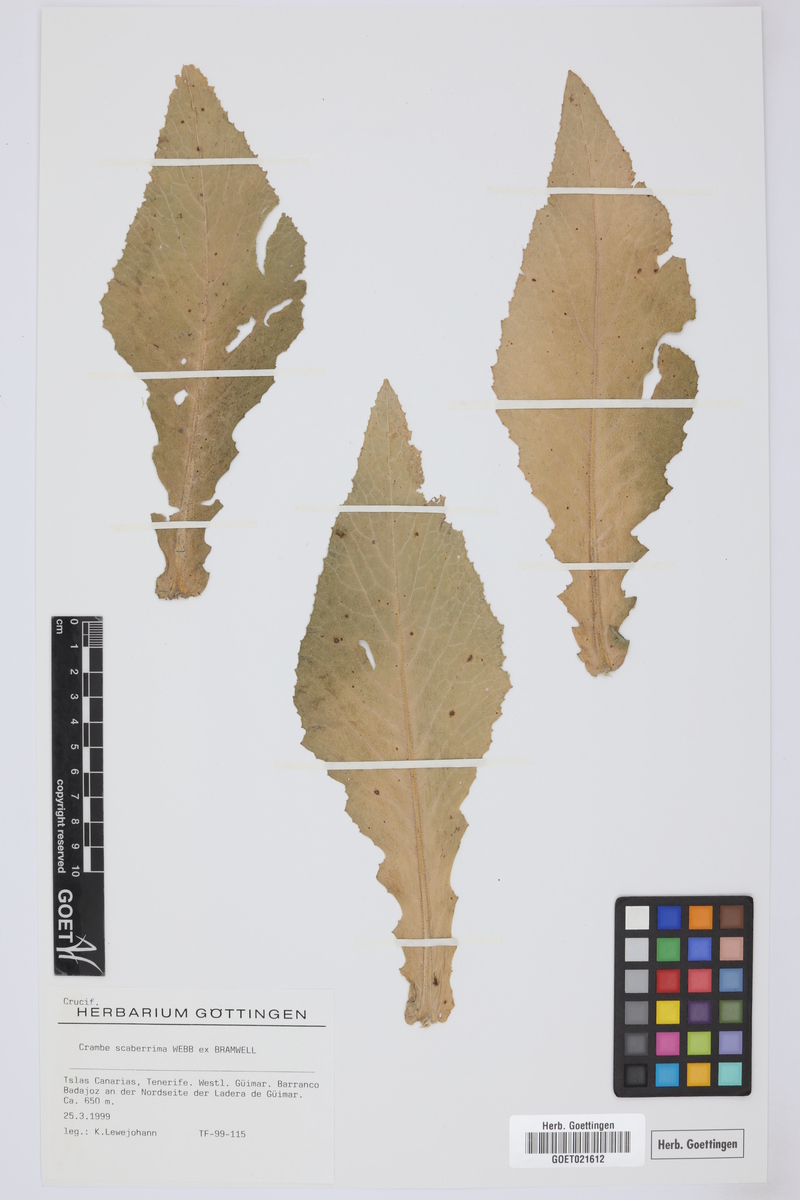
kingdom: Plantae
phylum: Tracheophyta
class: Magnoliopsida
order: Brassicales
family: Brassicaceae
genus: Crambe
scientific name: Crambe scaberrima
